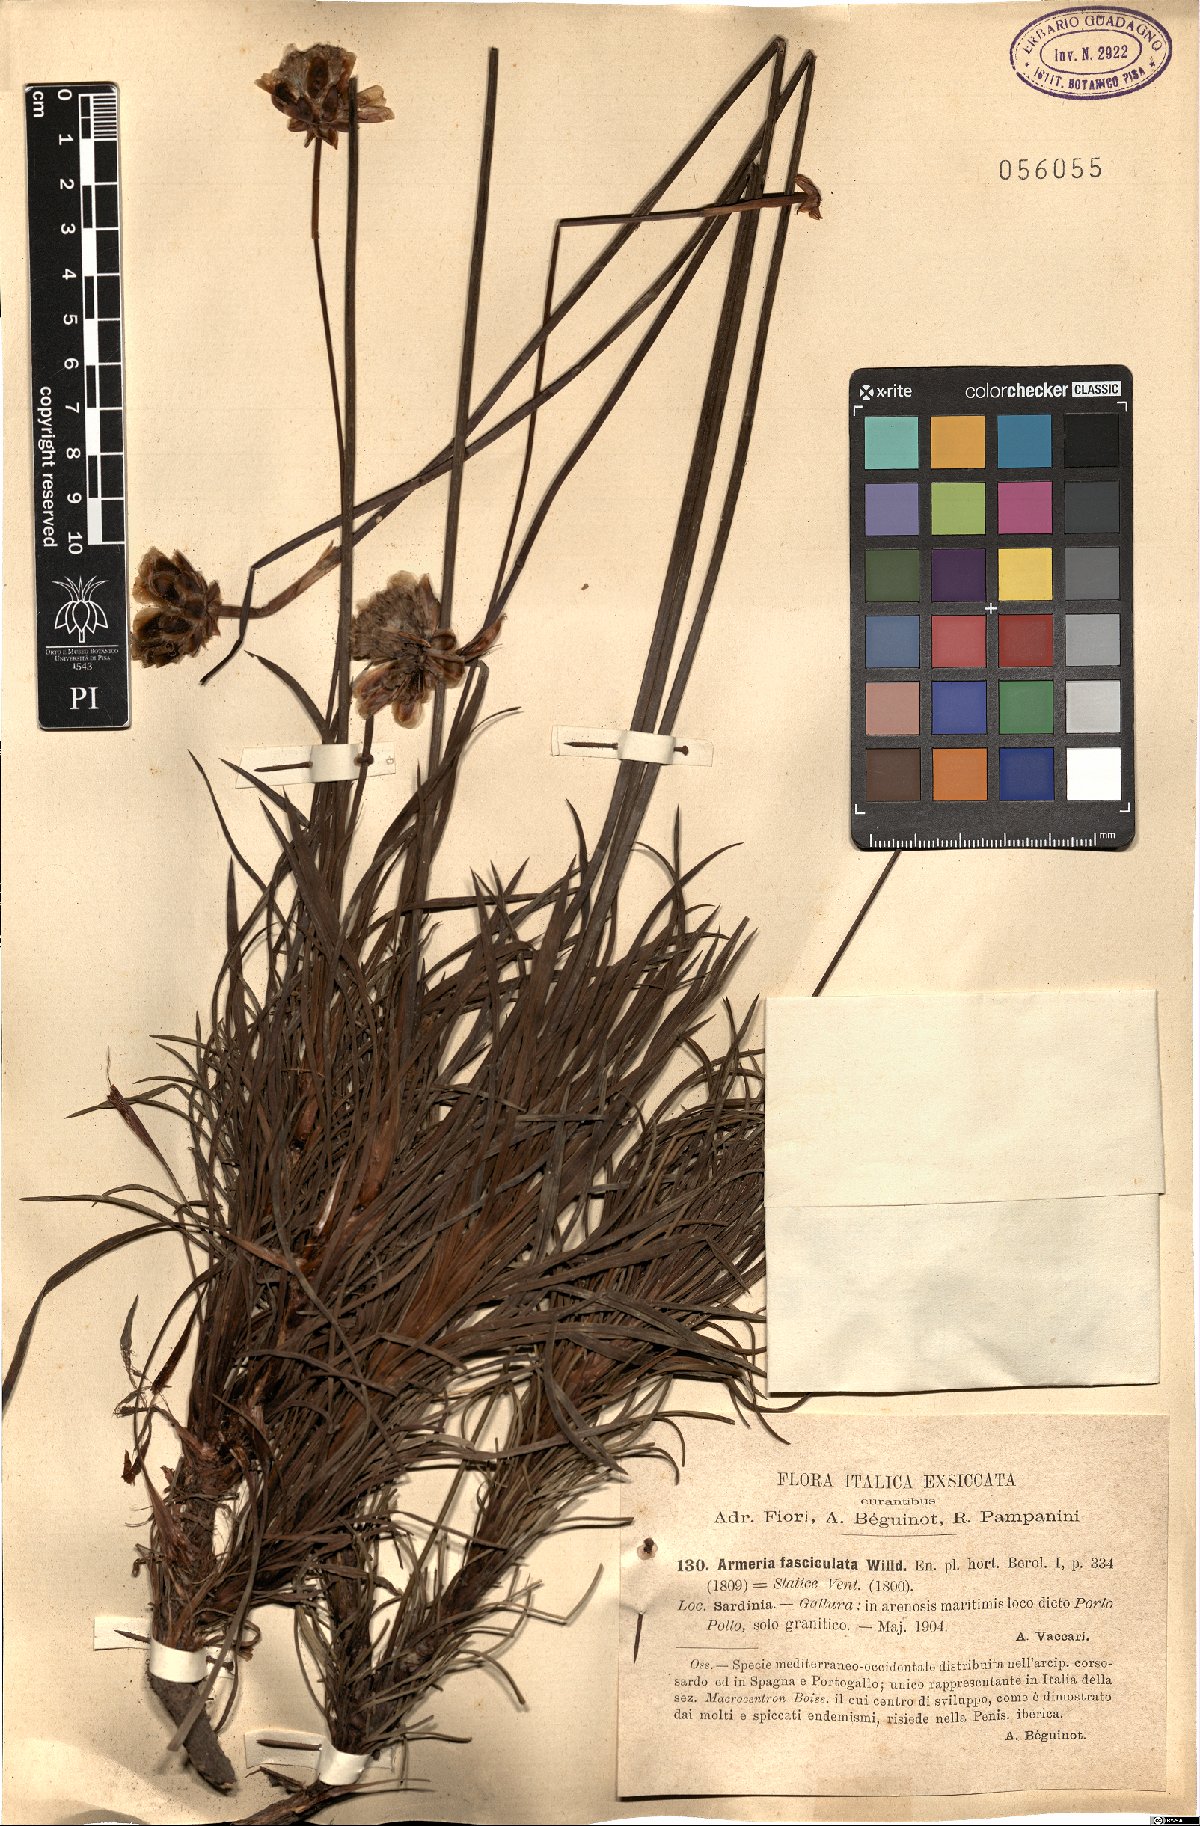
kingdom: Plantae
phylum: Tracheophyta
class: Magnoliopsida
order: Caryophyllales
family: Plumbaginaceae
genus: Armeria
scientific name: Armeria pungens
